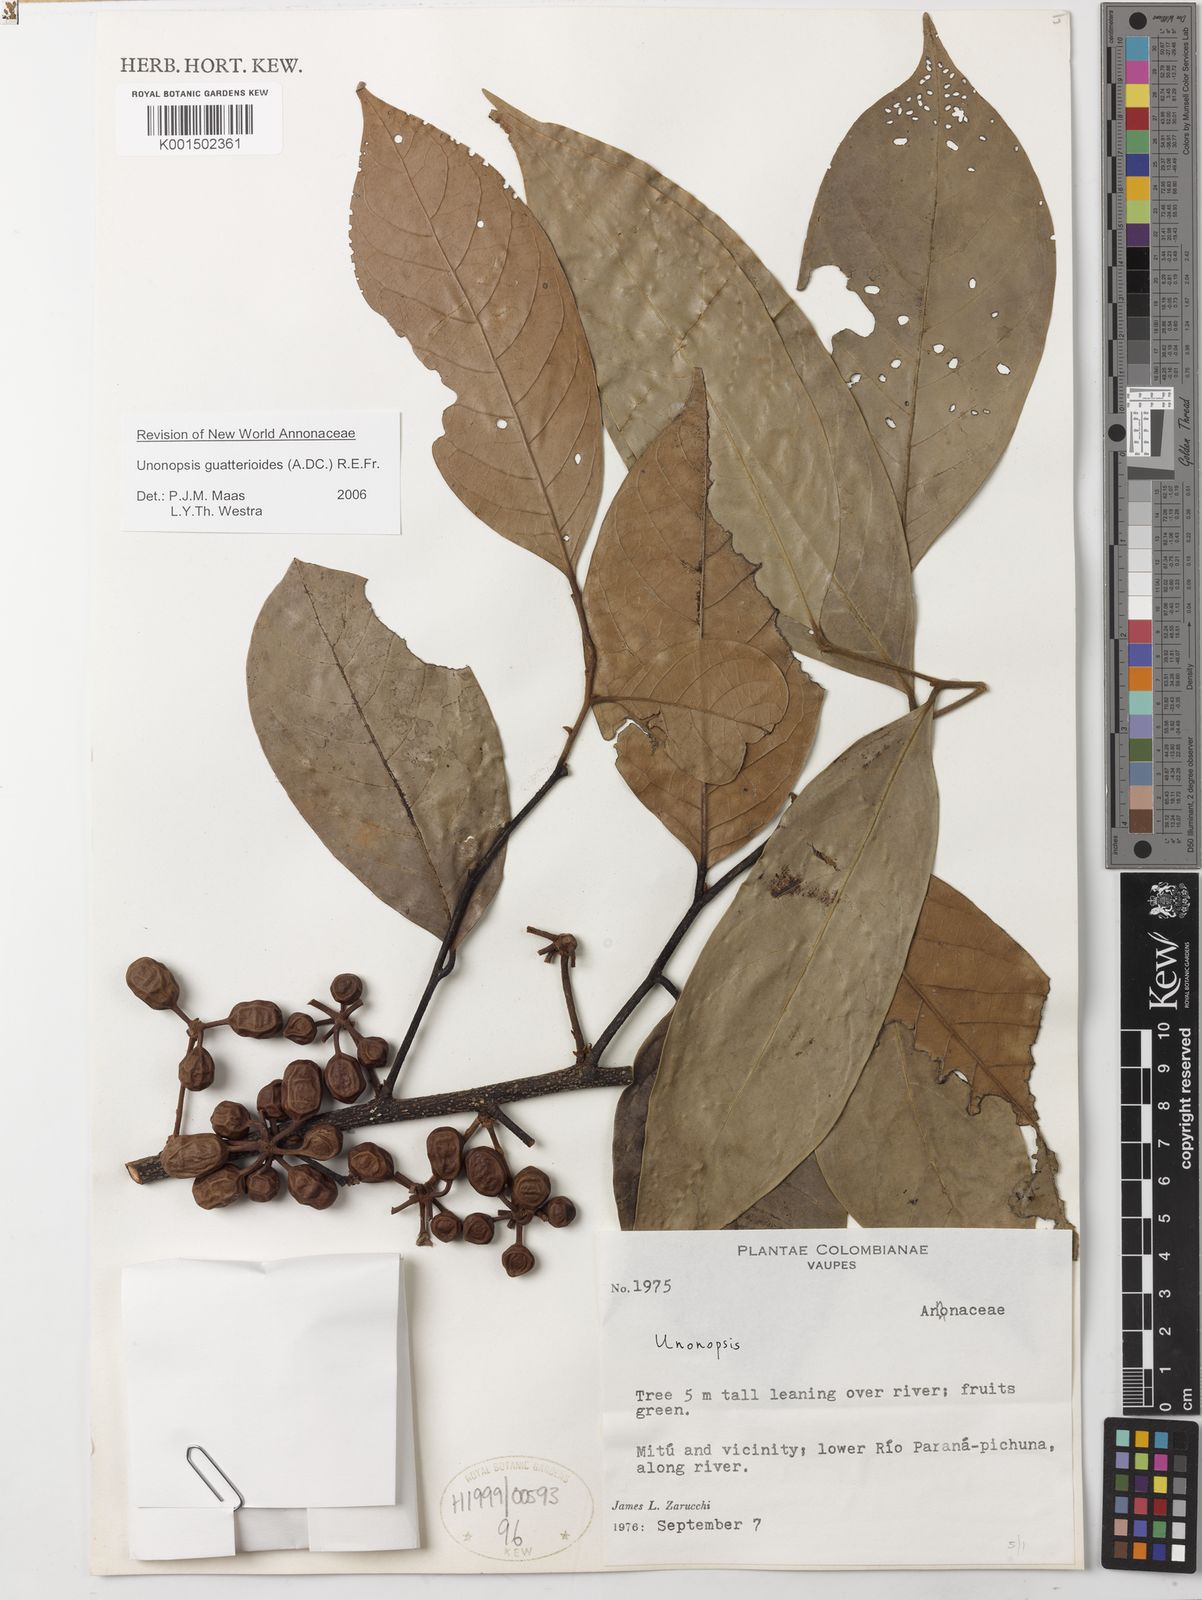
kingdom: Plantae
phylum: Tracheophyta
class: Magnoliopsida
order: Magnoliales
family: Annonaceae
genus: Unonopsis
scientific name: Unonopsis guatterioides
